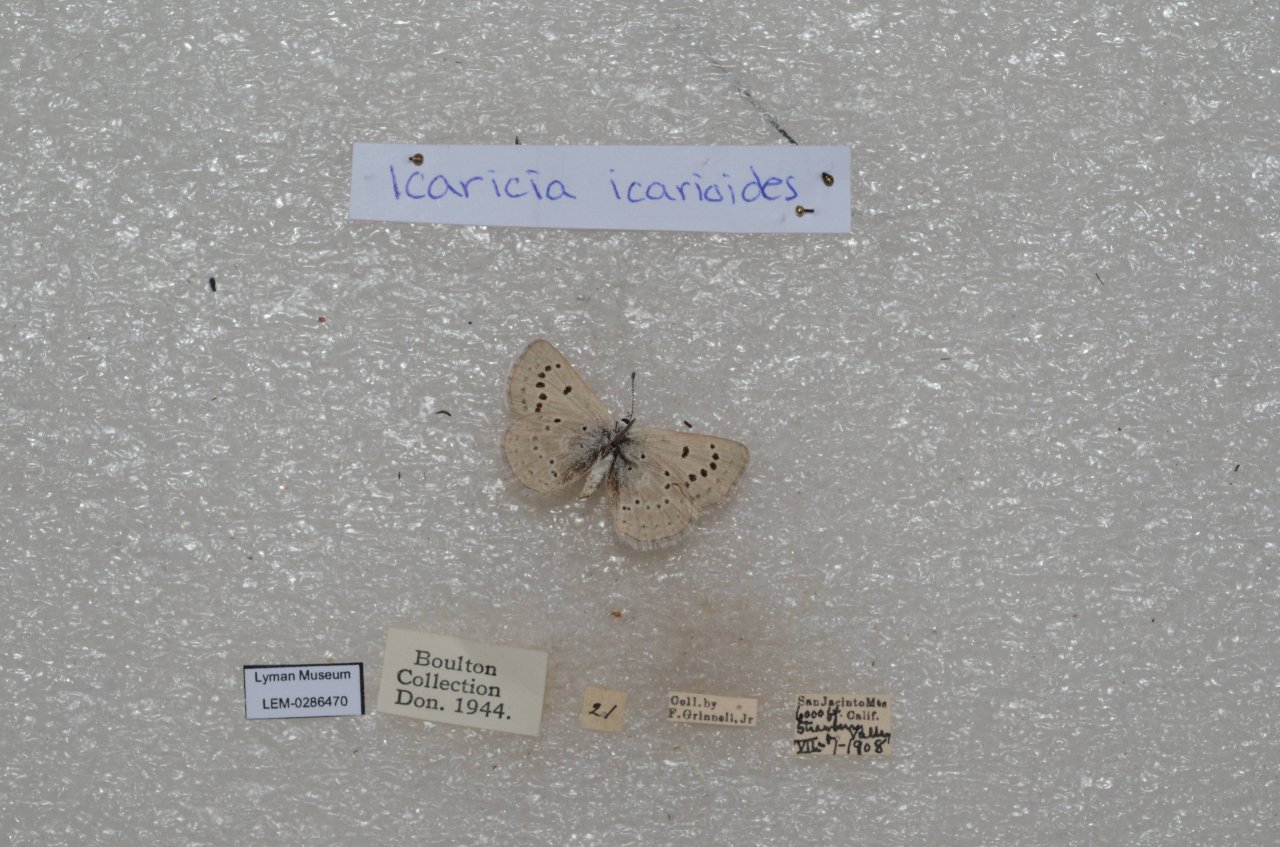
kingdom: Animalia
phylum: Arthropoda
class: Insecta
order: Lepidoptera
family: Lycaenidae
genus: Icaricia
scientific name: Icaricia icarioides
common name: Boisduval's Blue
